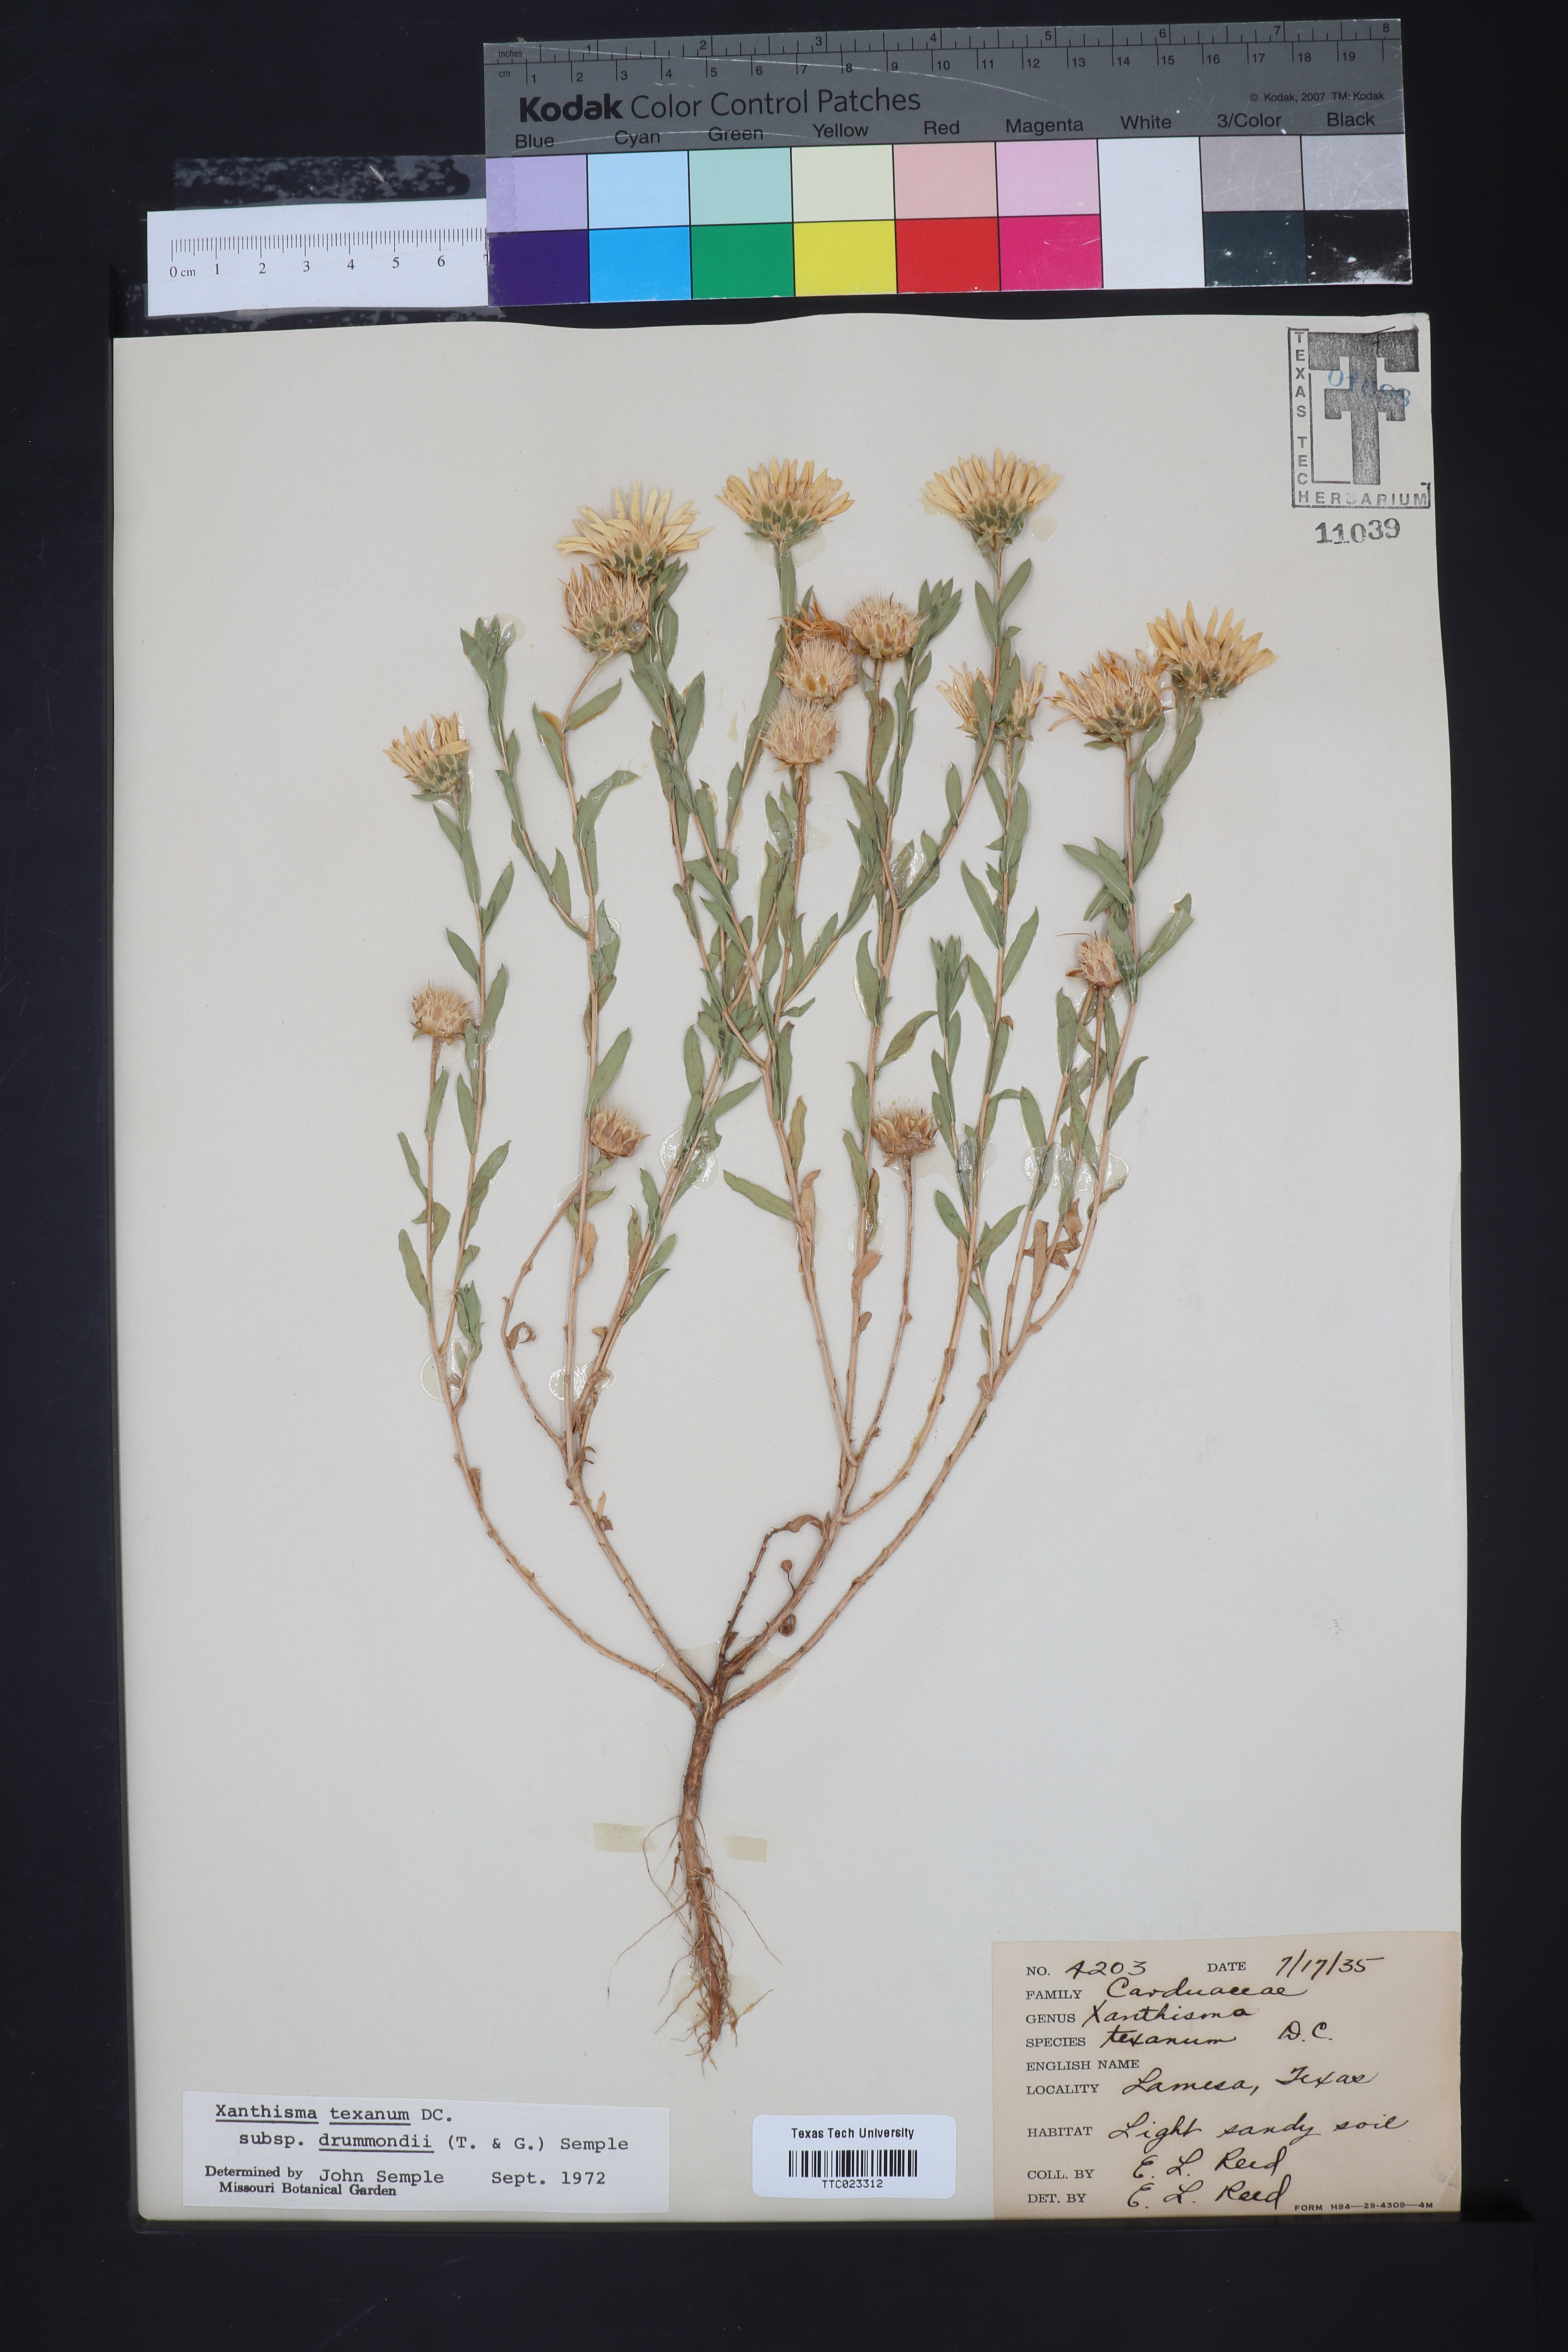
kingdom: Plantae
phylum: Tracheophyta
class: Magnoliopsida
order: Asterales
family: Asteraceae
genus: Xanthisma
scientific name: Xanthisma texanum
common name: Texas sleepy daisy
